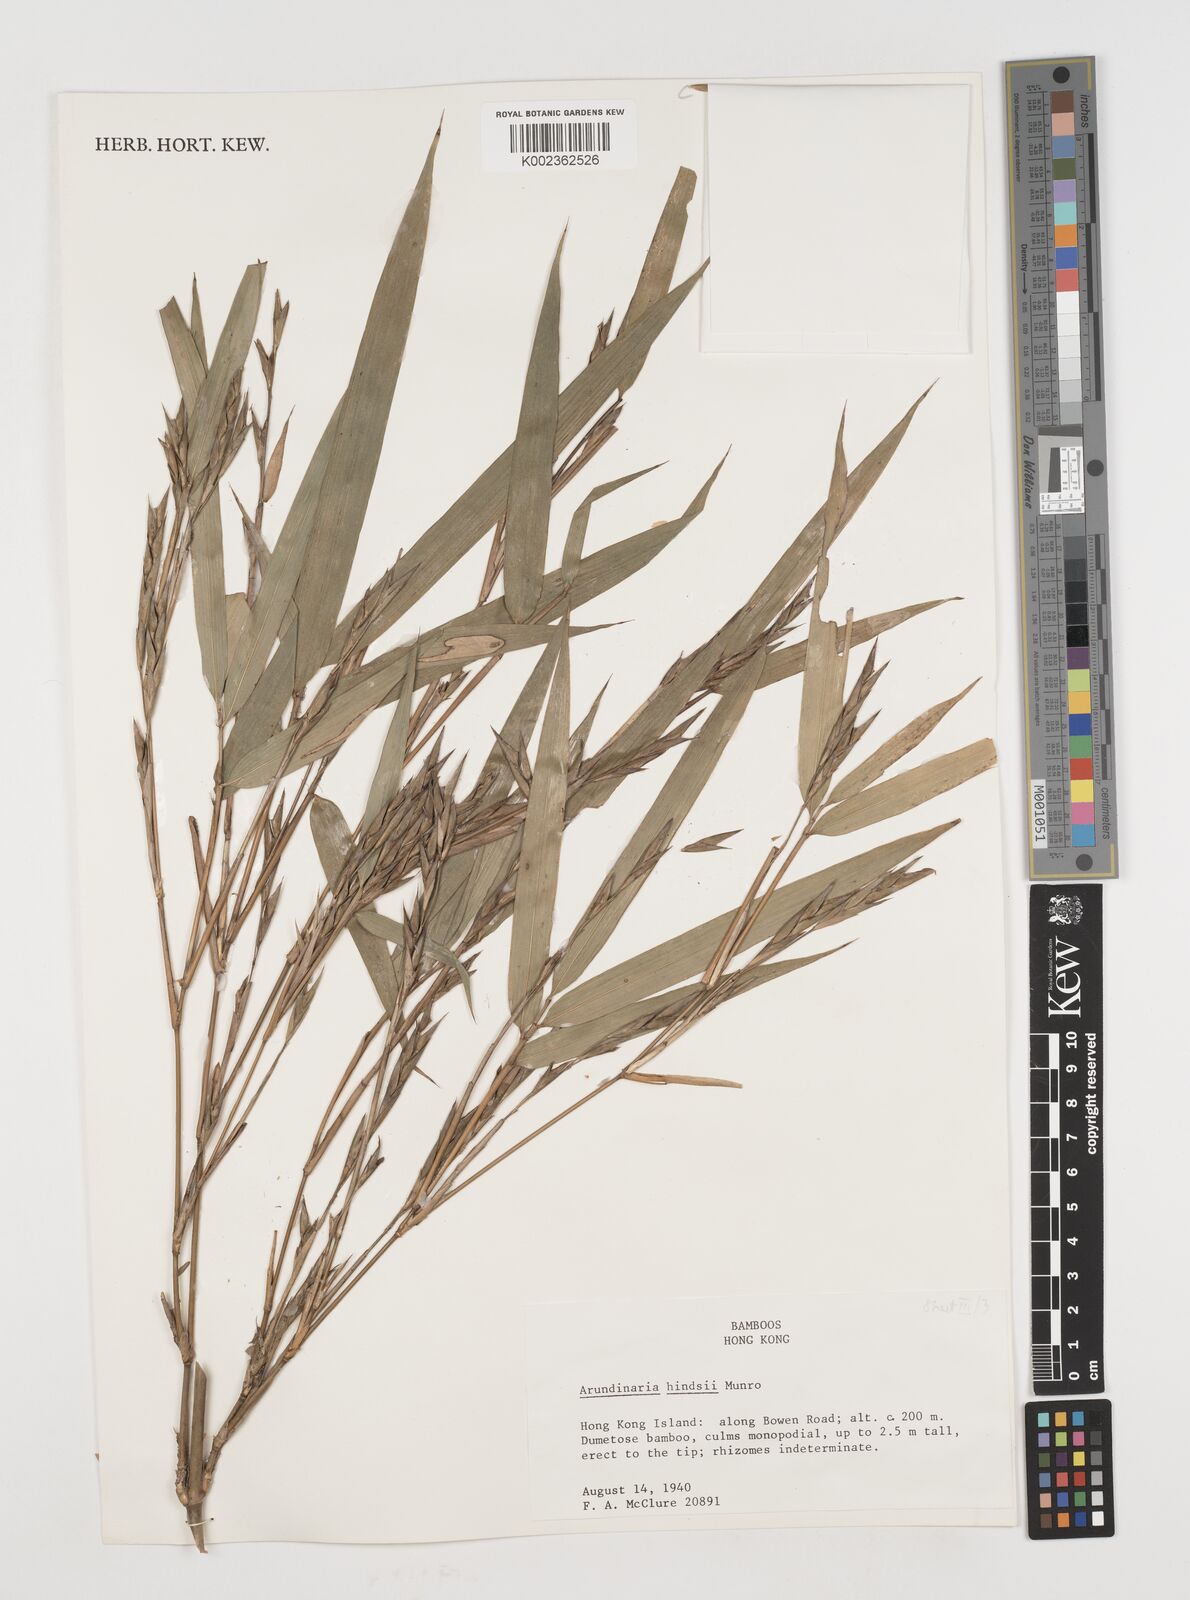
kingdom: Plantae
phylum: Tracheophyta
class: Liliopsida
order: Poales
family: Poaceae
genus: Pseudosasa
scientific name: Pseudosasa hindsii
